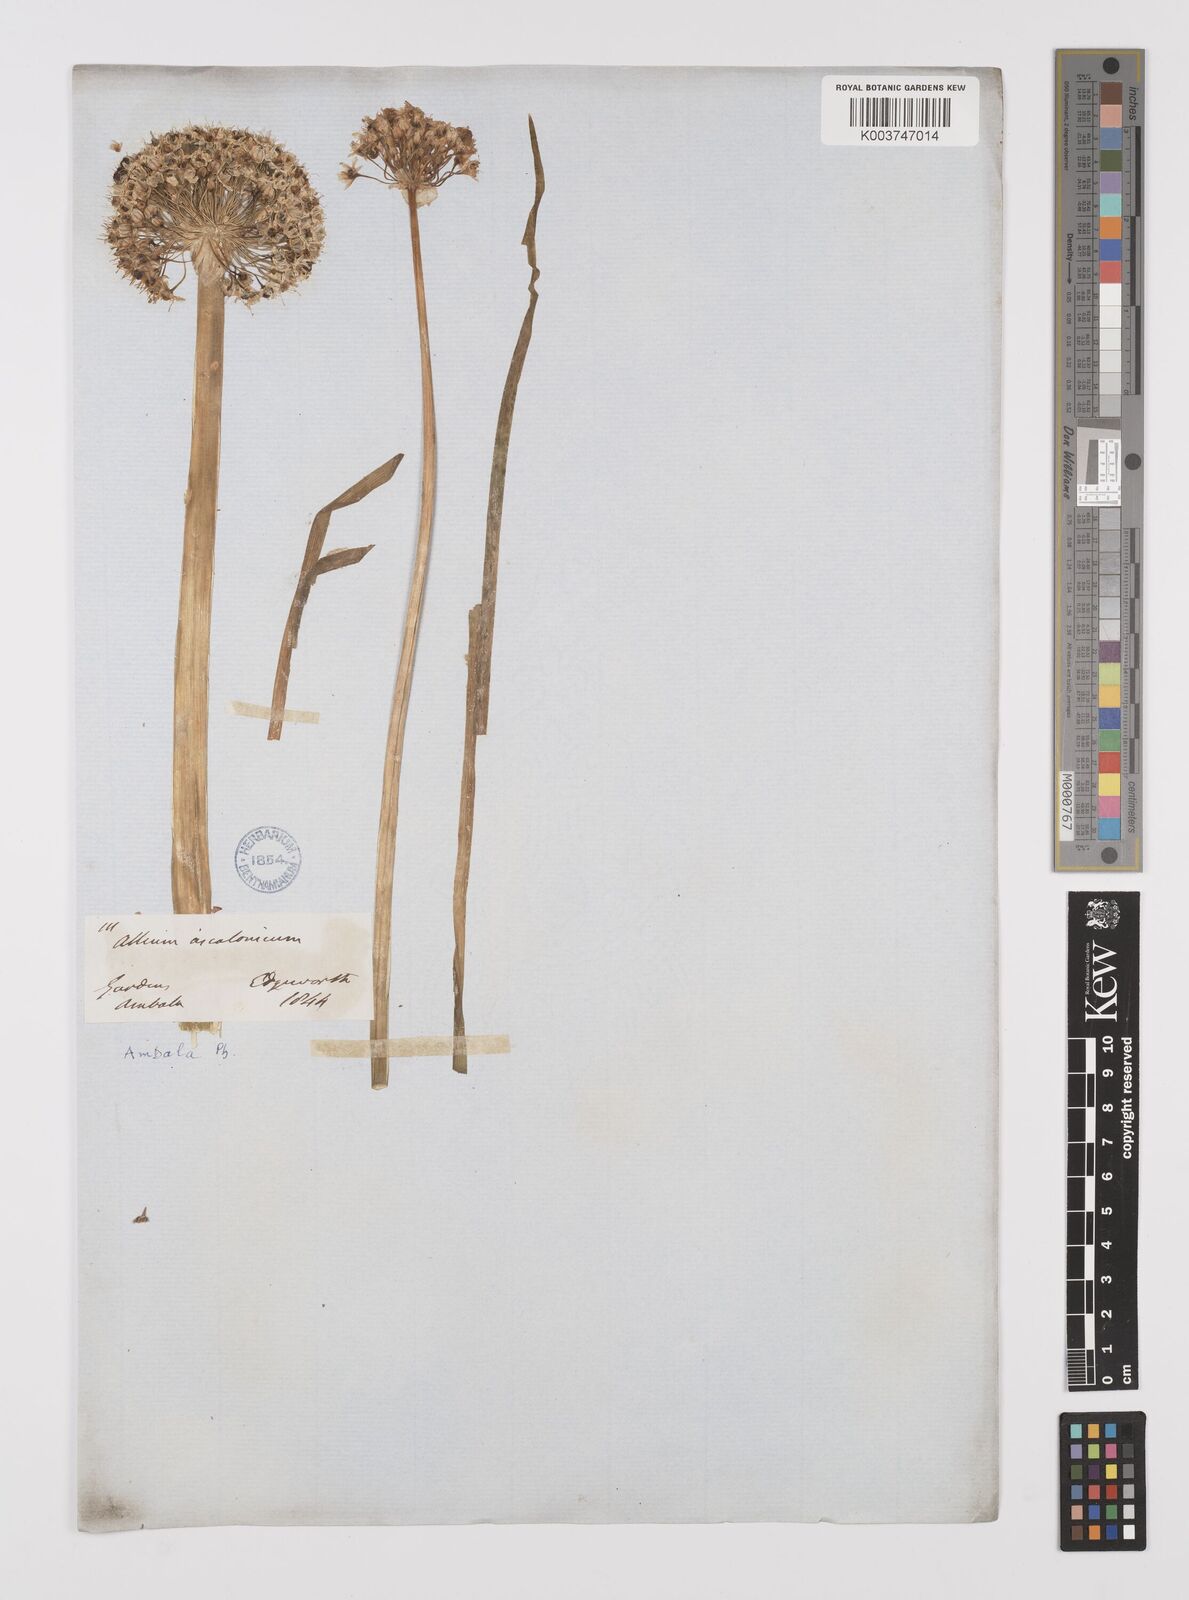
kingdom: Plantae
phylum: Tracheophyta
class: Liliopsida
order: Asparagales
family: Amaryllidaceae
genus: Allium
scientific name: Allium ascalonicum
